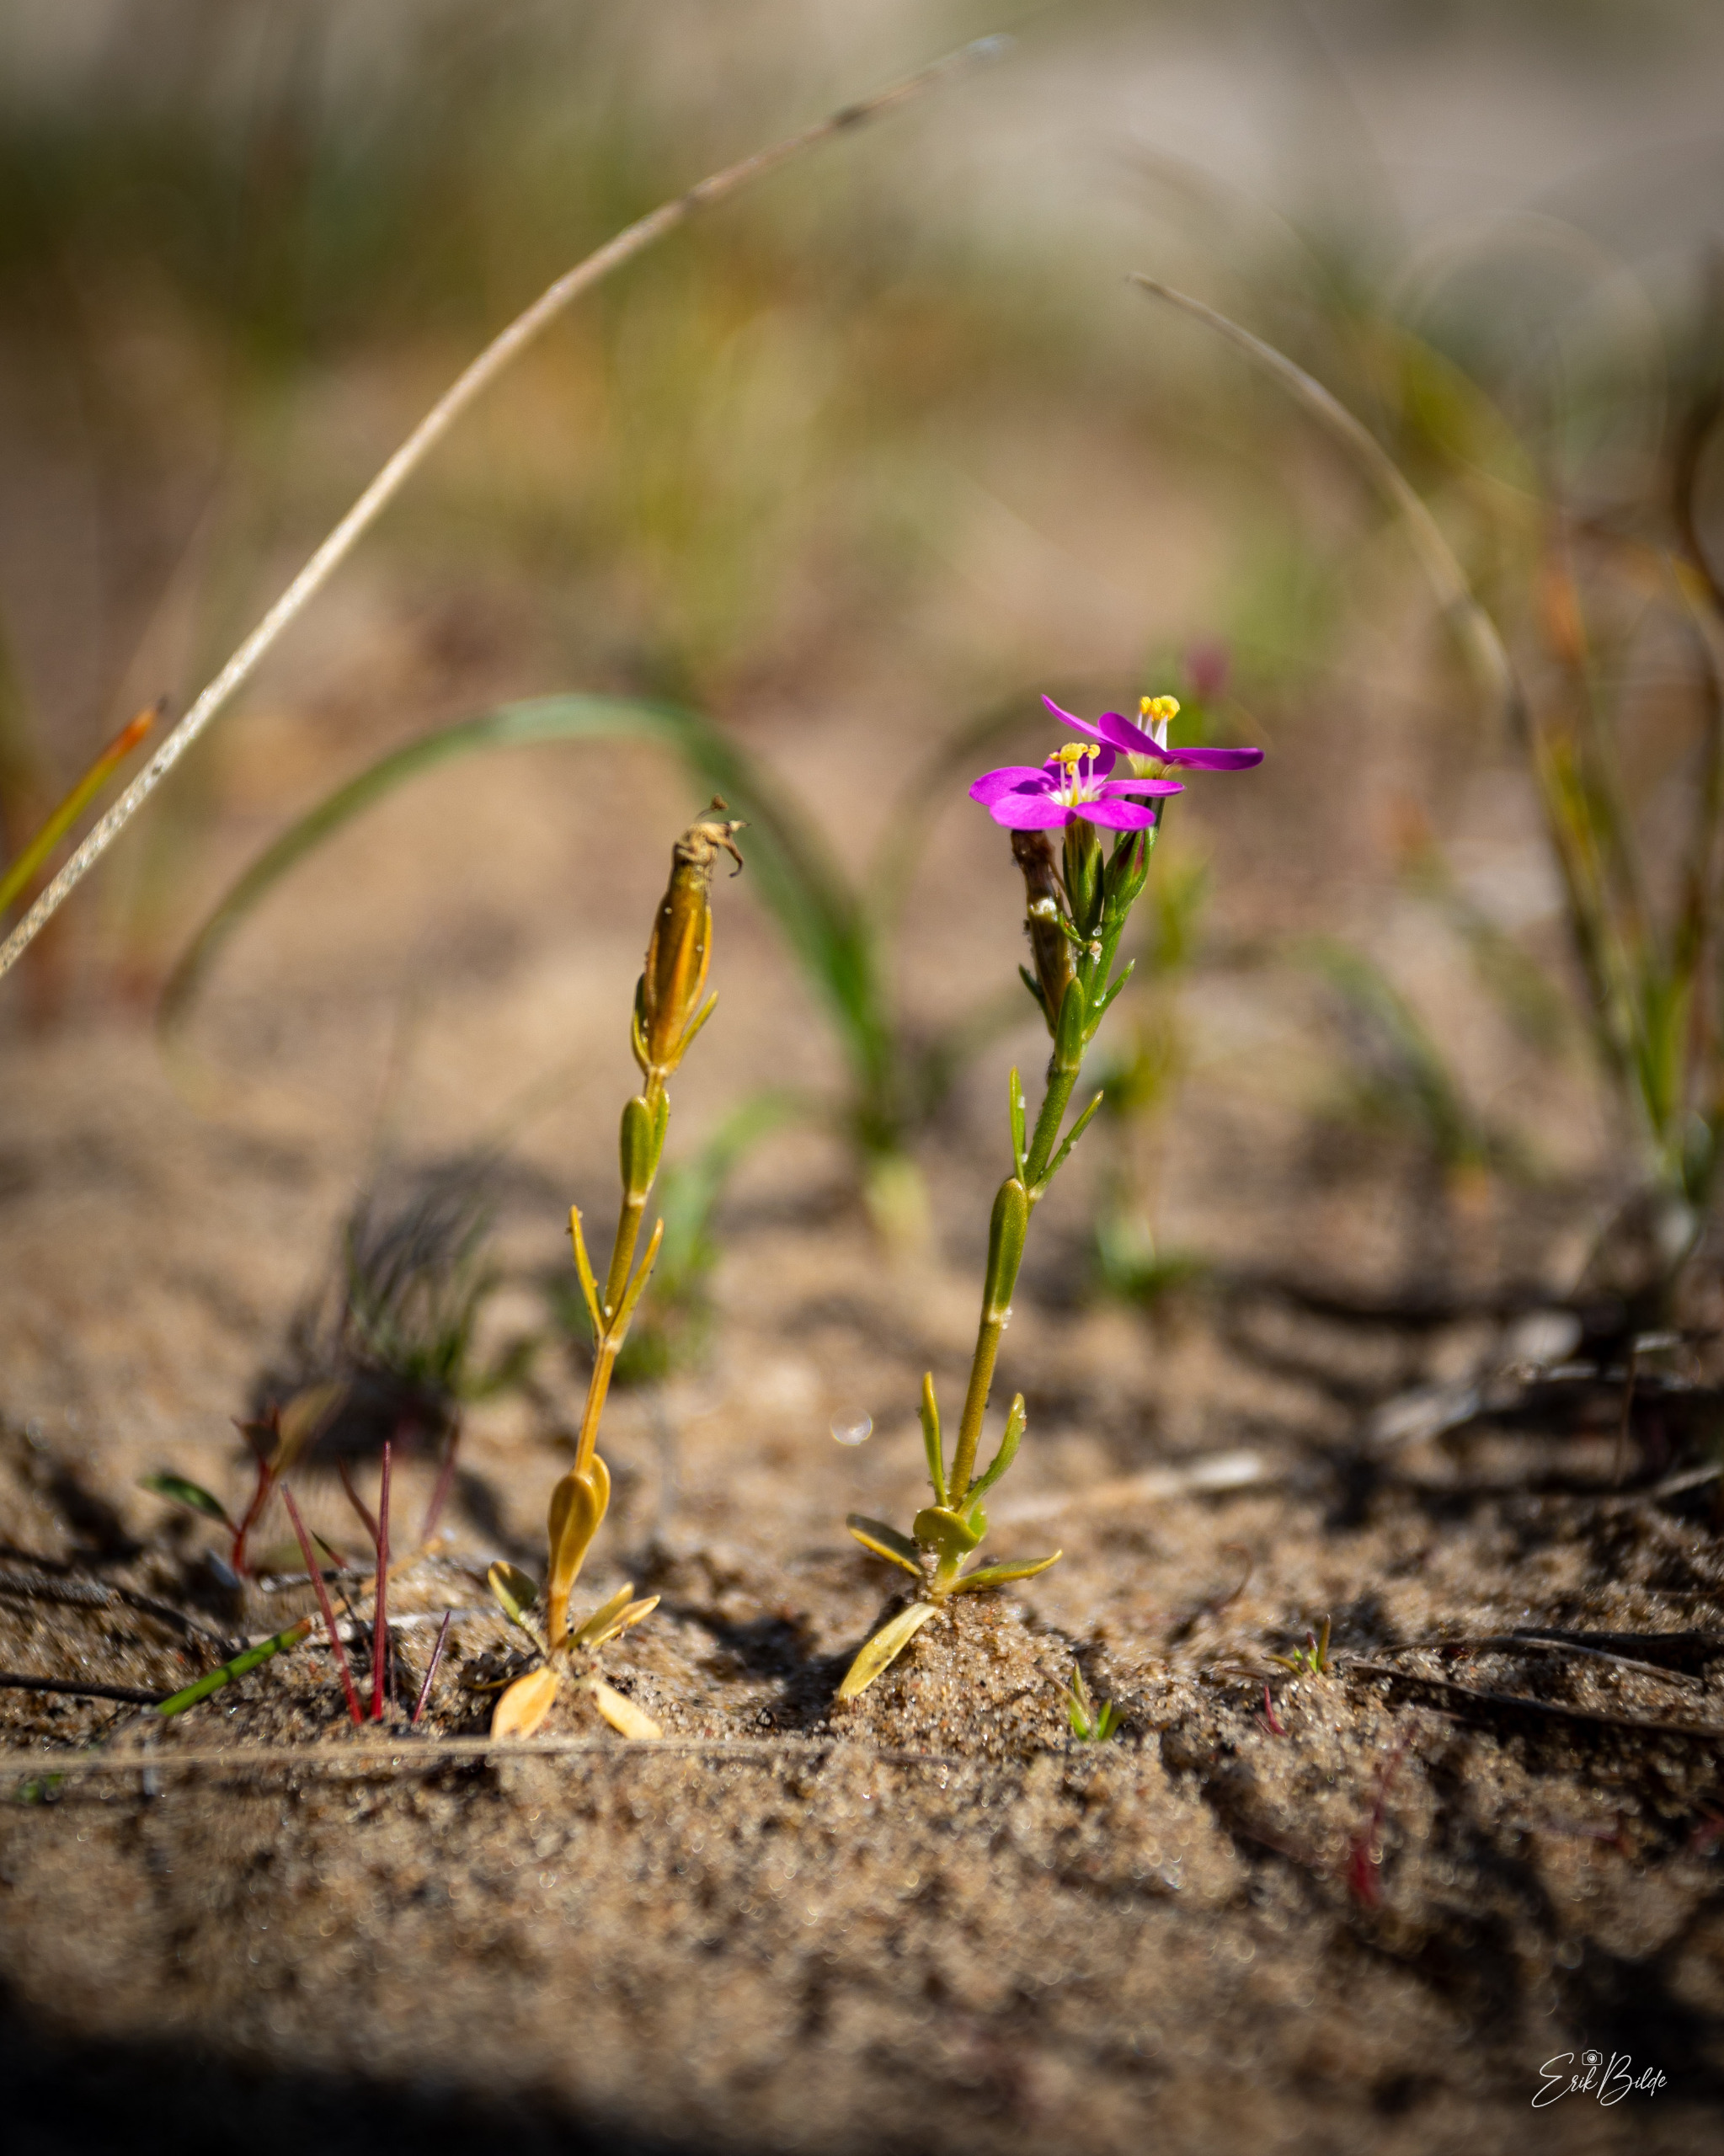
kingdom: Plantae
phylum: Tracheophyta
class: Magnoliopsida
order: Gentianales
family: Gentianaceae
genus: Centaurium
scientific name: Centaurium littorale
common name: Strand-tusindgylden
